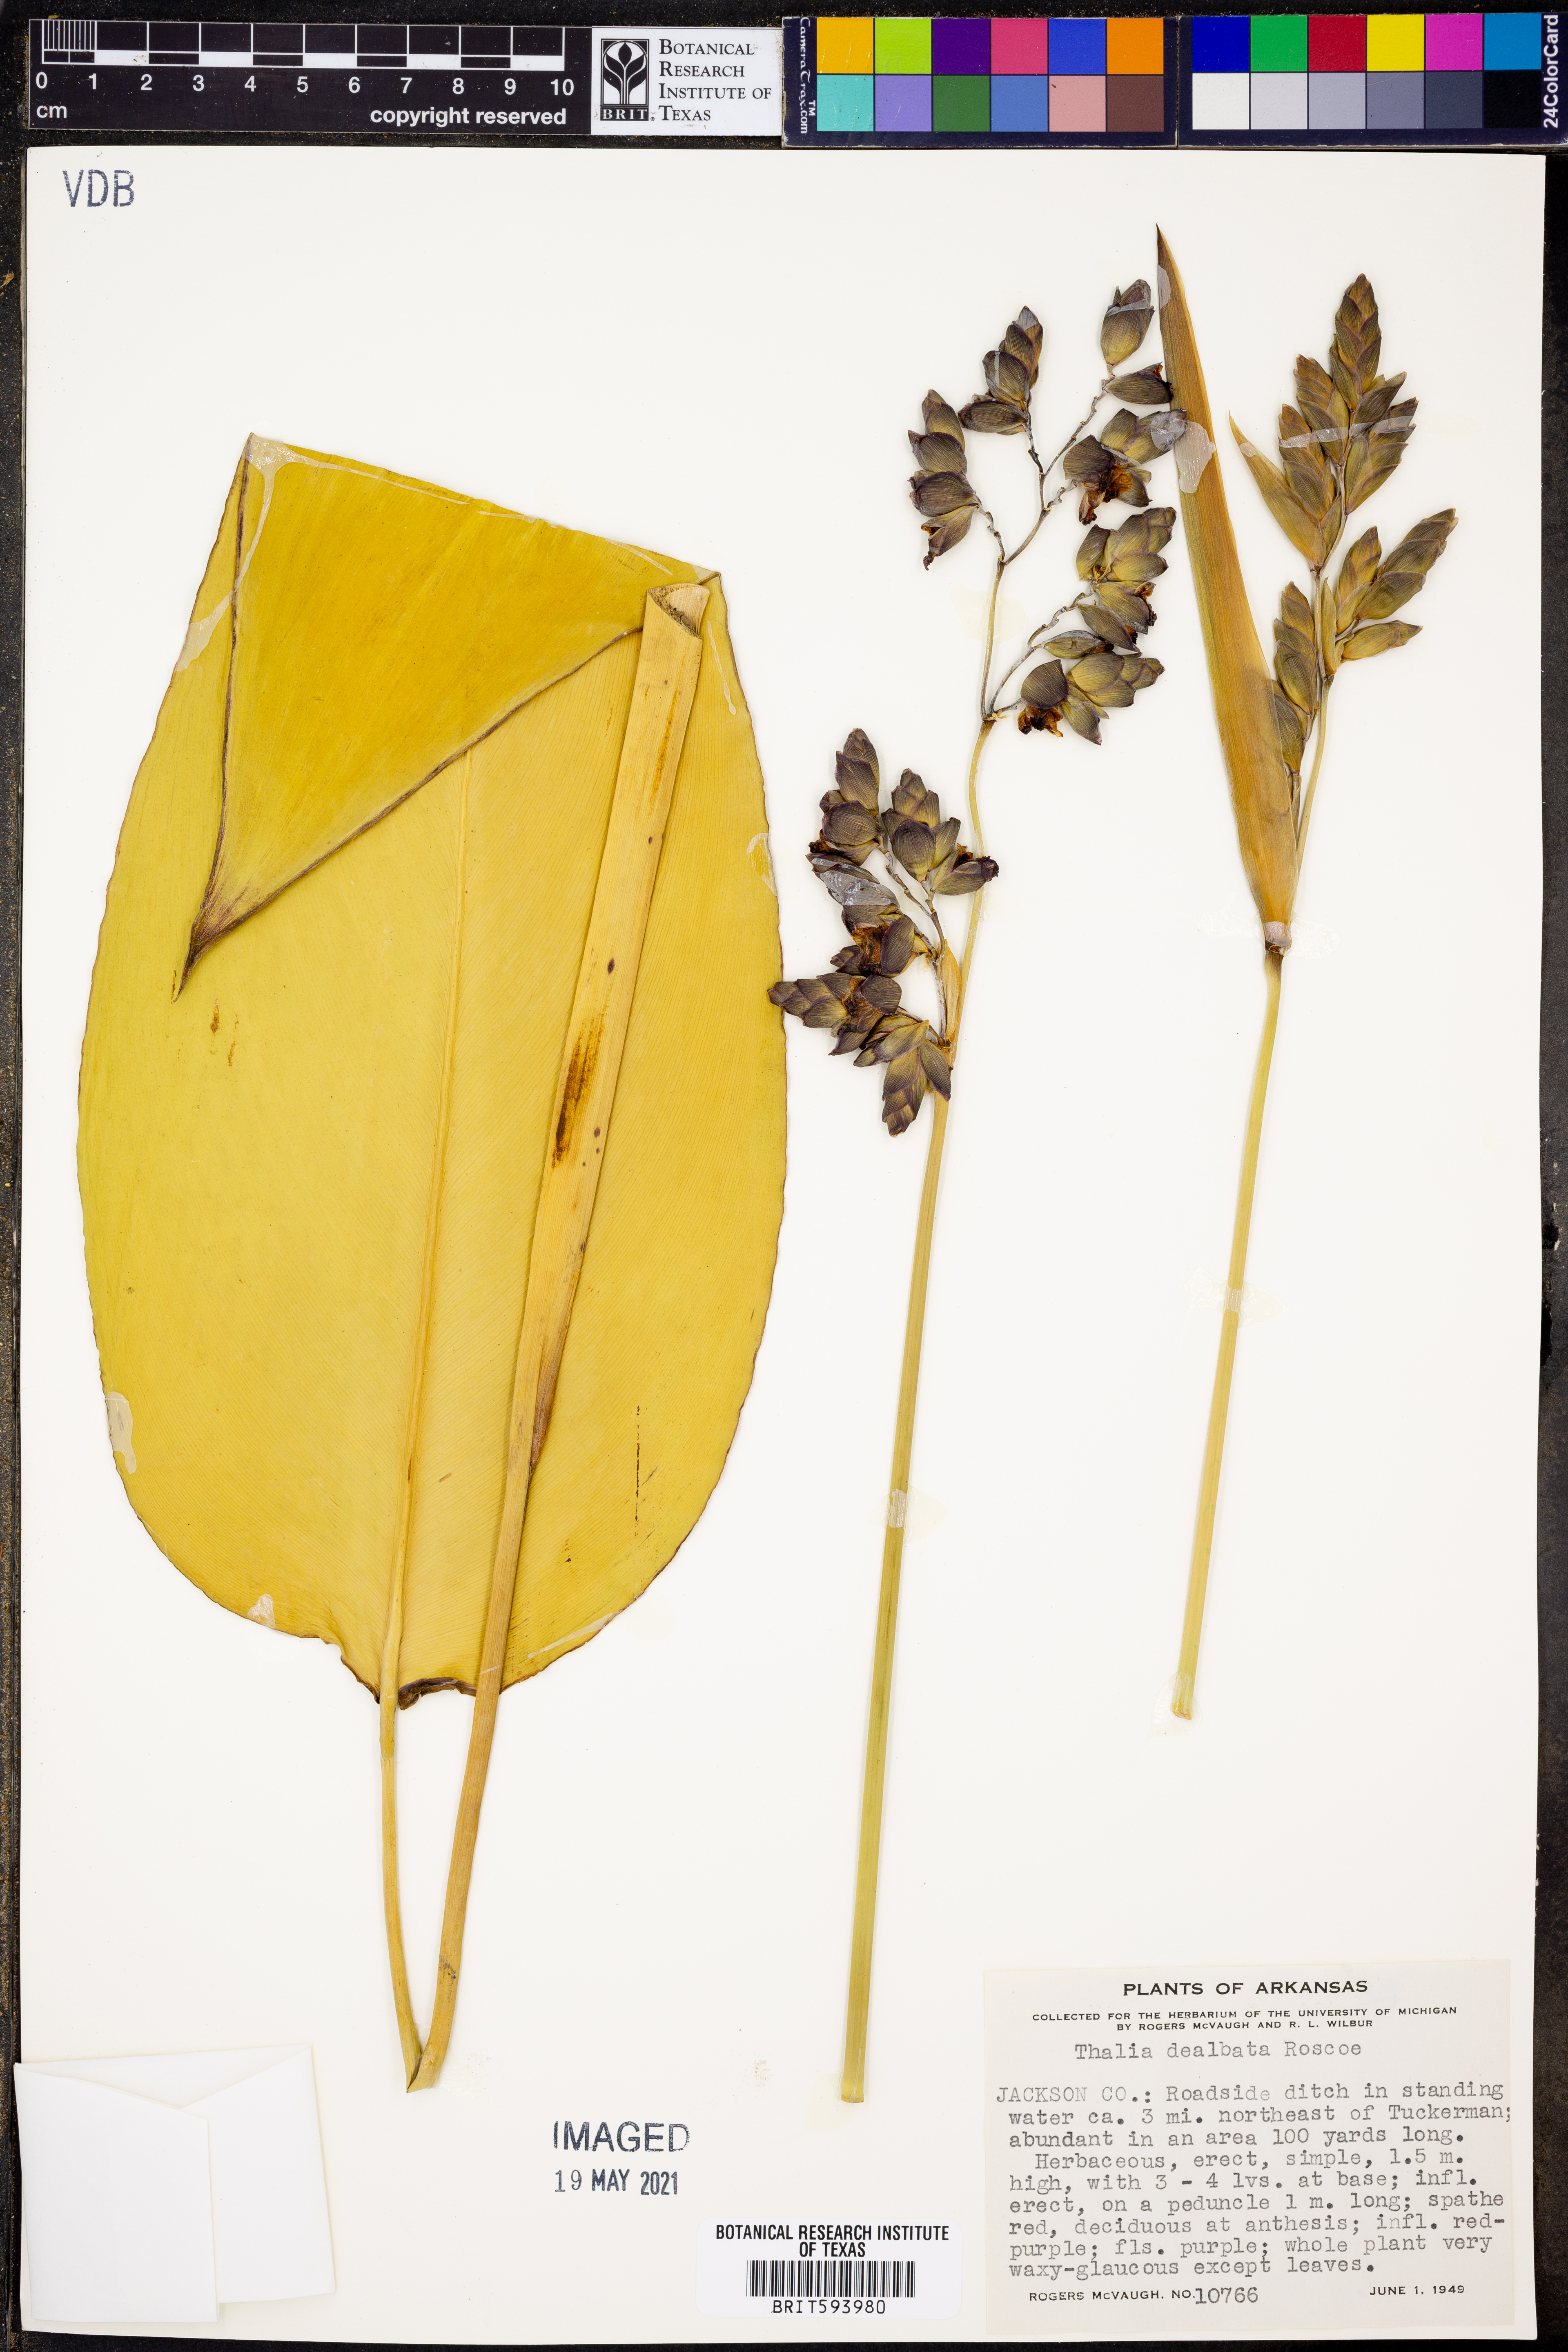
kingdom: Plantae
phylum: Tracheophyta
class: Liliopsida
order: Zingiberales
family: Marantaceae
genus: Thalia
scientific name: Thalia dealbata
